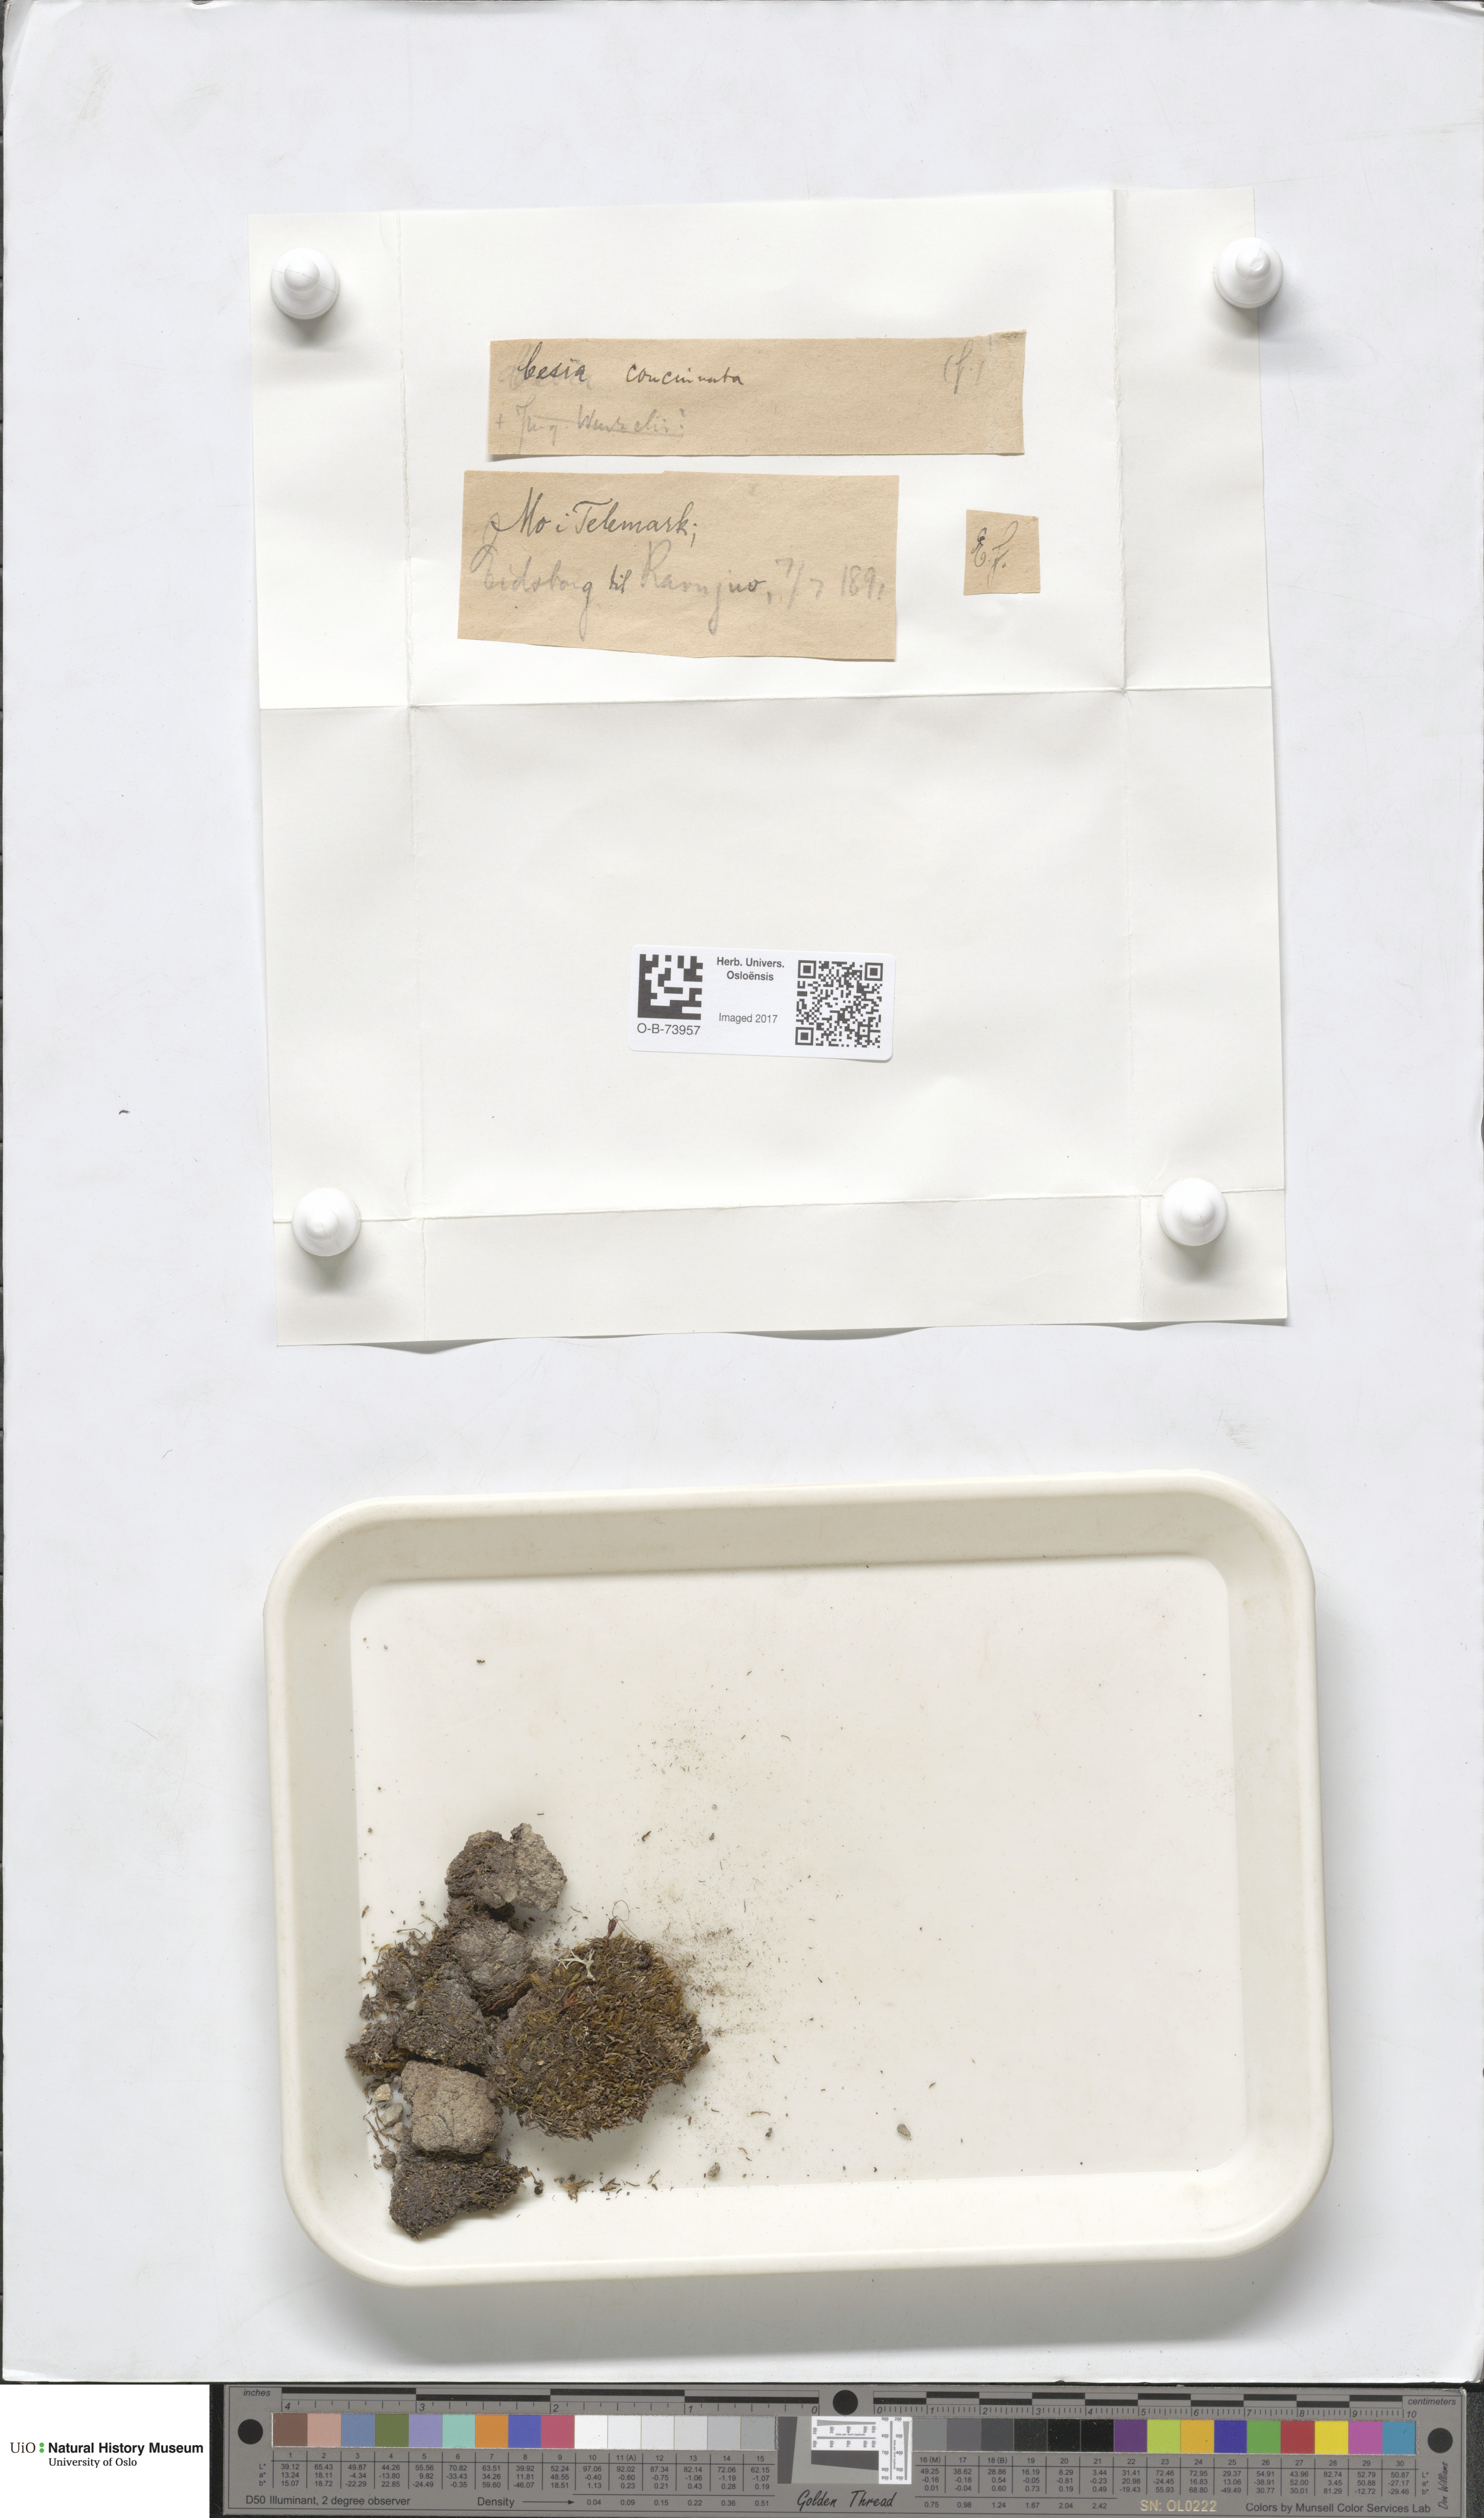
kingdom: Plantae
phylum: Marchantiophyta
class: Jungermanniopsida
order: Jungermanniales
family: Gymnomitriaceae
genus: Marsupella
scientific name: Marsupella apiculata
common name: Pointed frostwort
